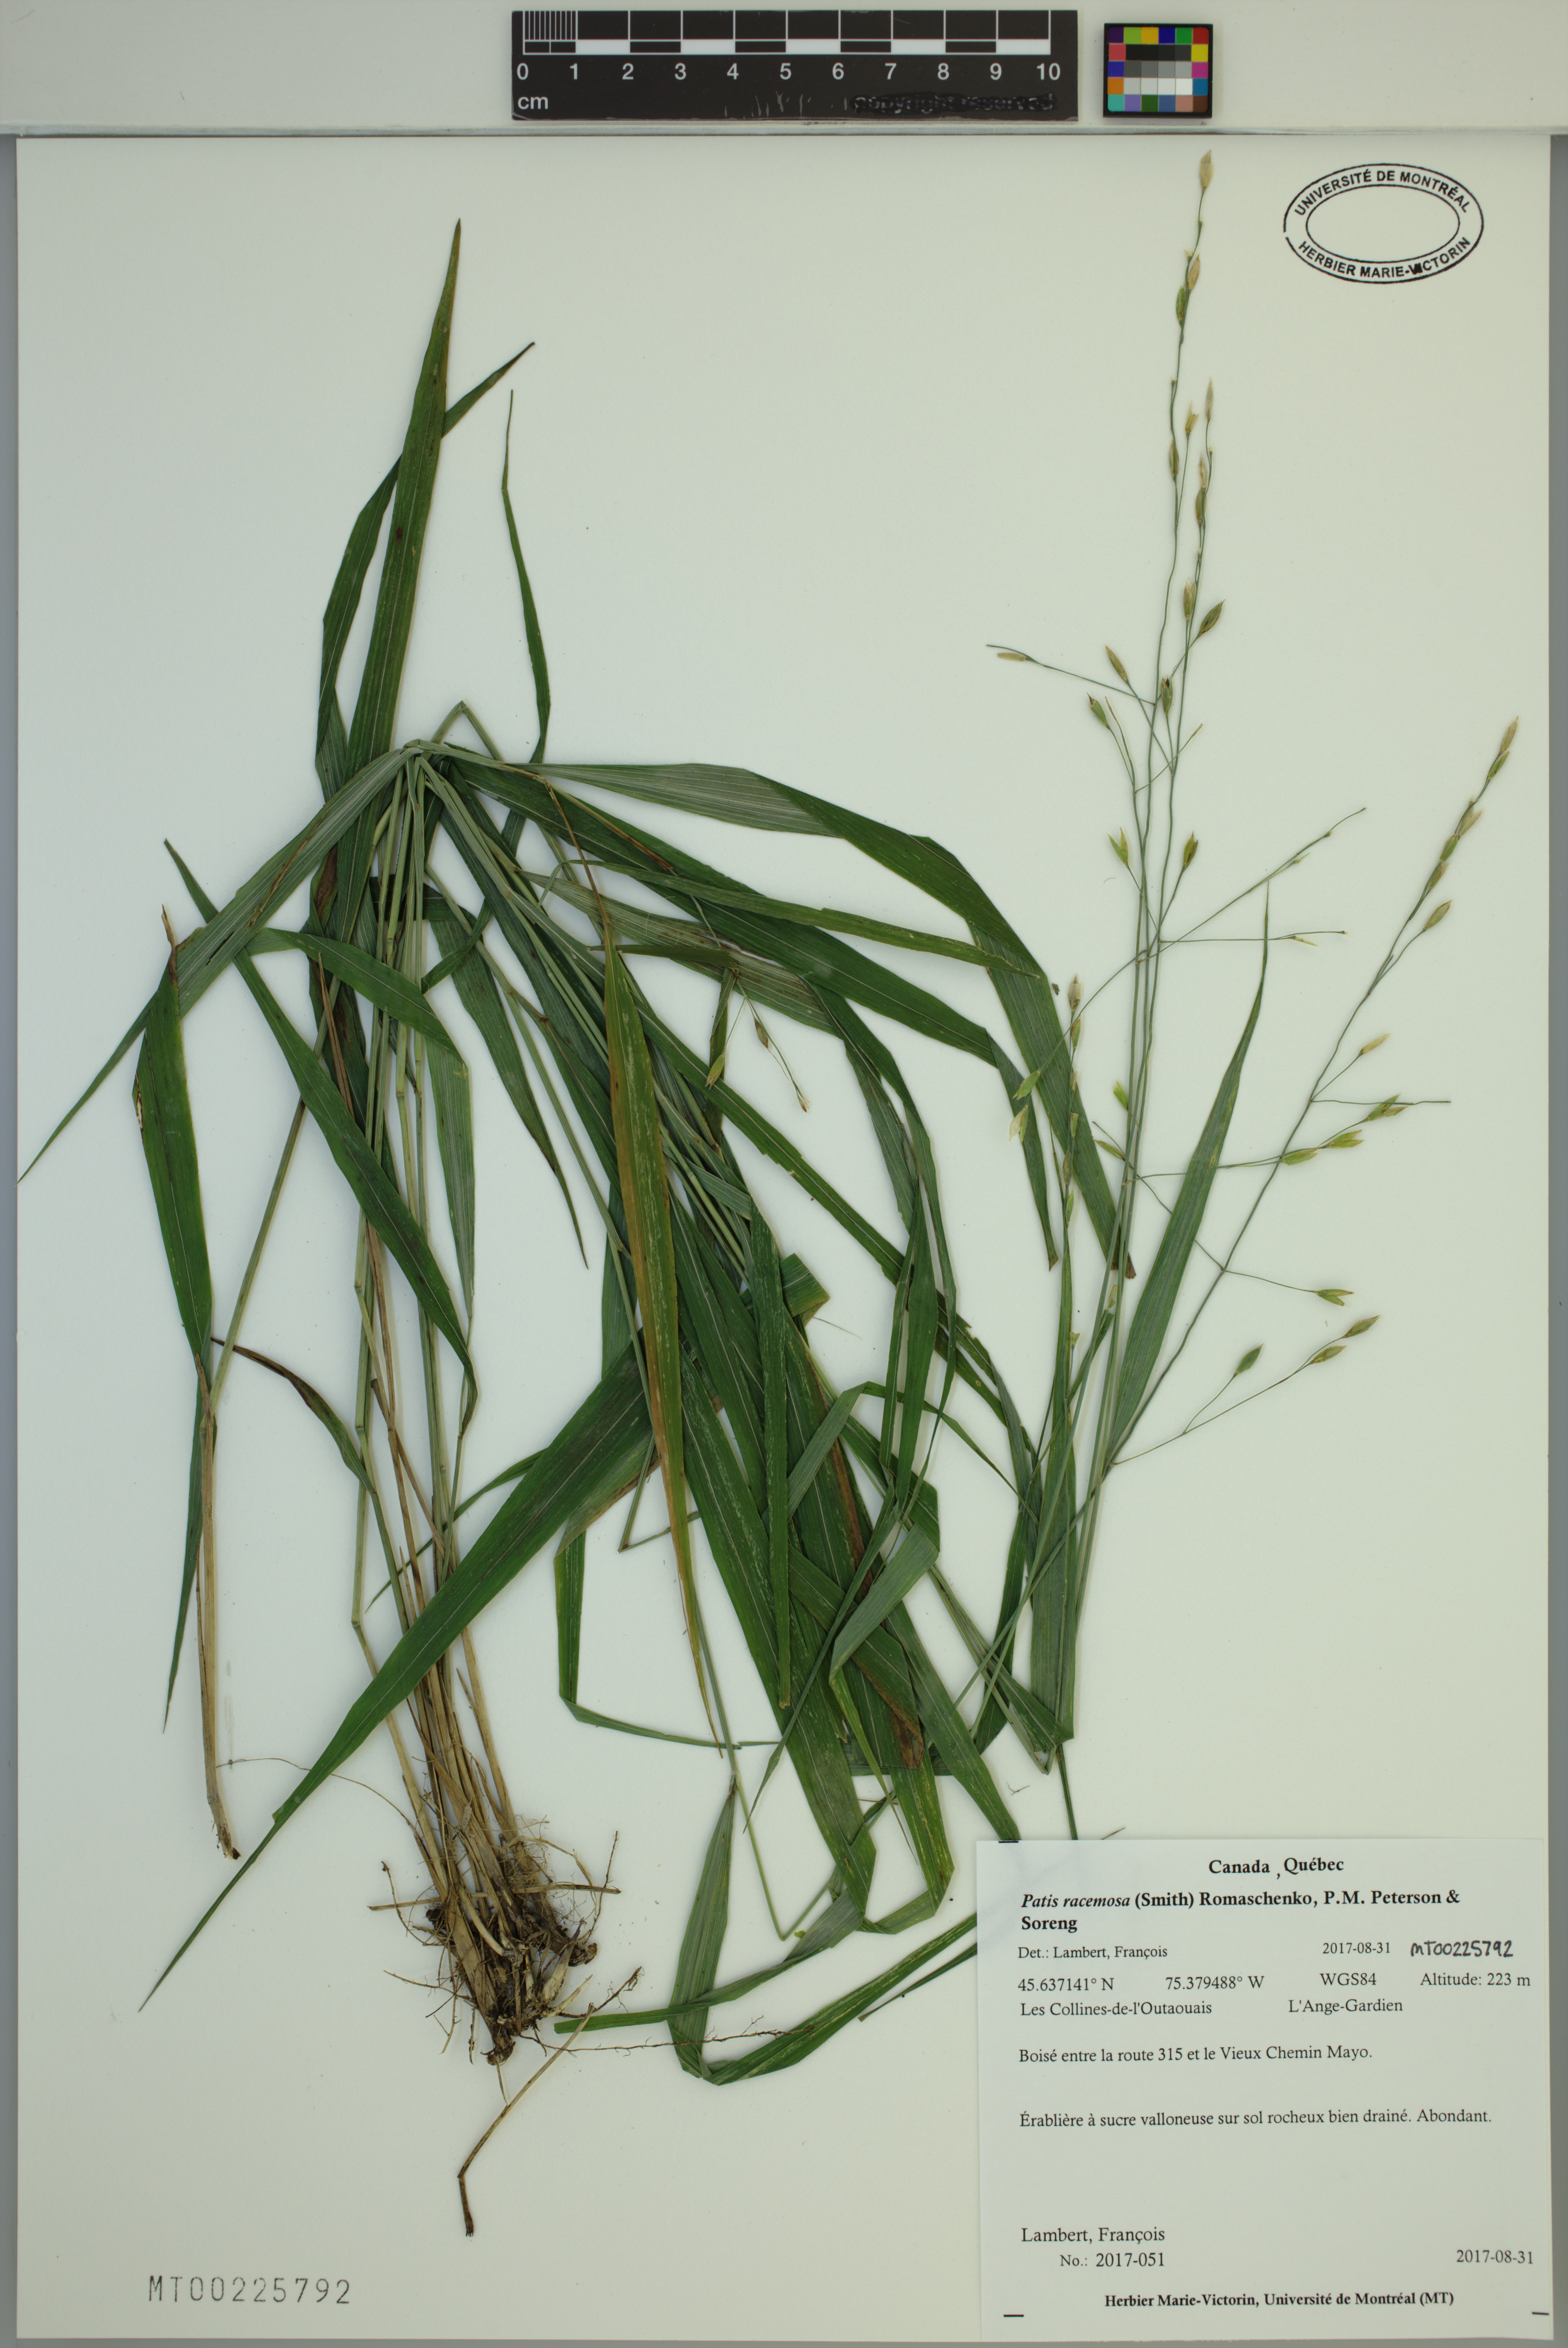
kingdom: Plantae
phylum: Tracheophyta
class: Liliopsida
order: Poales
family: Poaceae
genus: Patis
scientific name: Patis racemosa
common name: Black-fruited mountain rice
